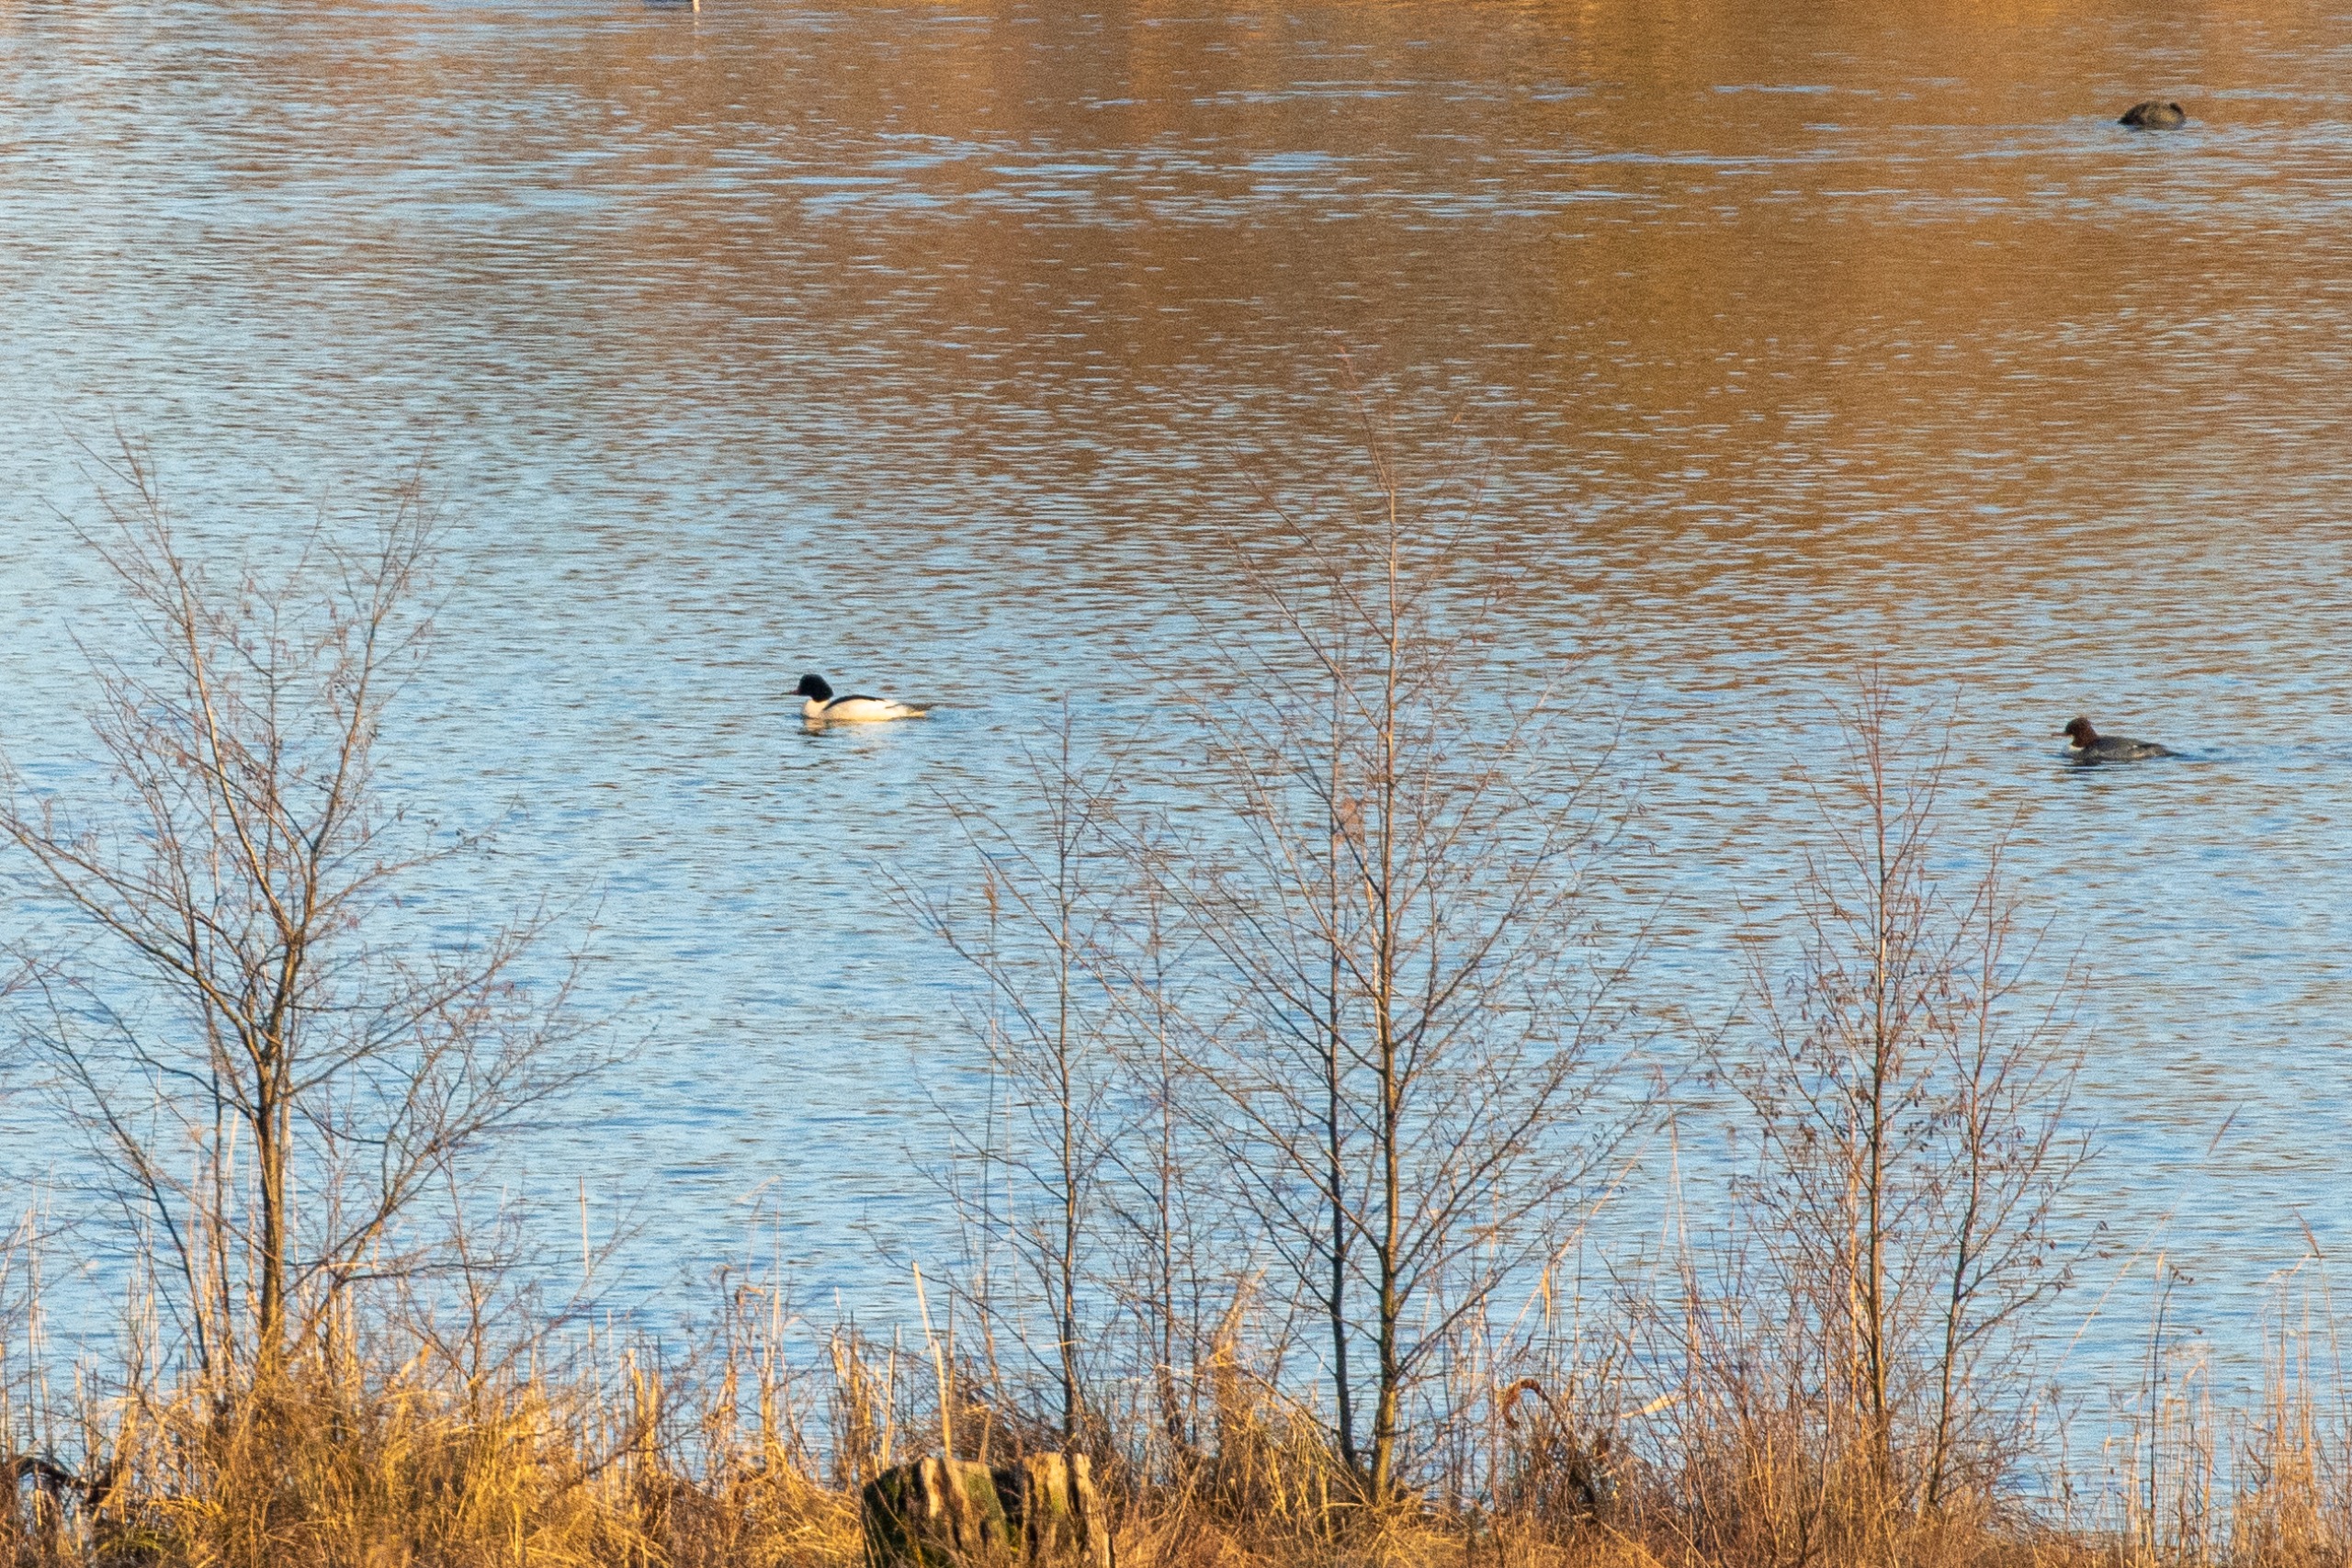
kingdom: Animalia
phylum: Chordata
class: Aves
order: Anseriformes
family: Anatidae
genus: Mergus
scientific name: Mergus merganser
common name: Stor skallesluger
